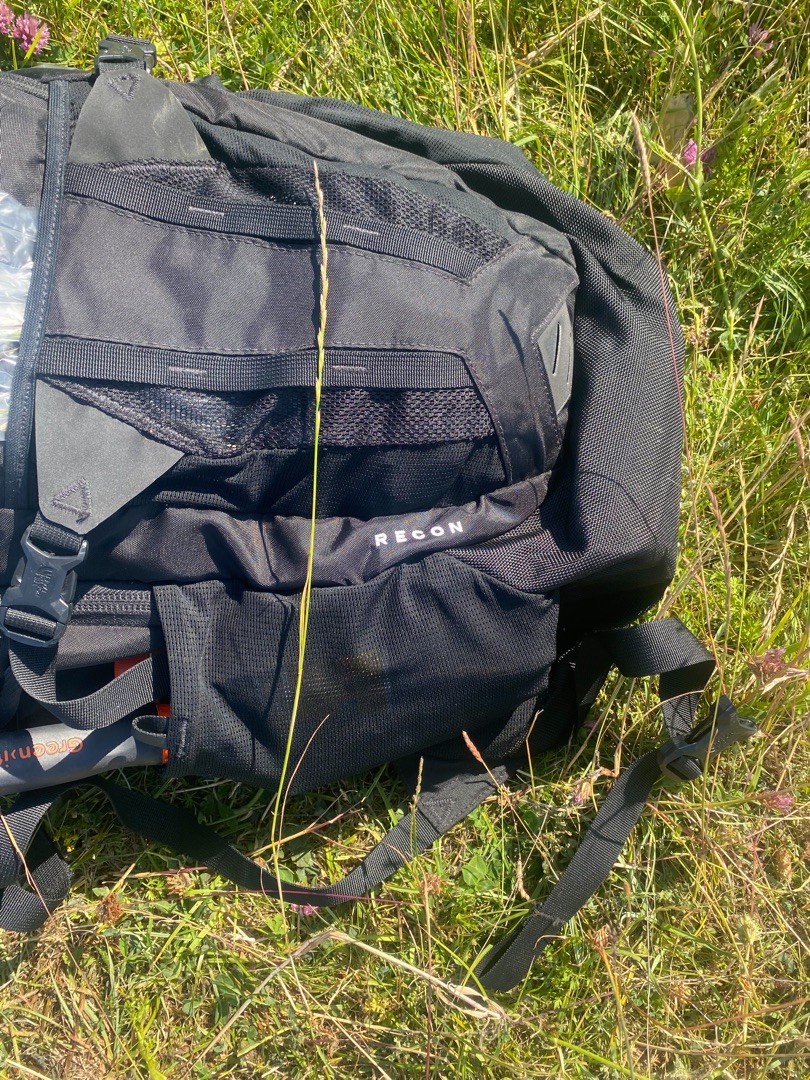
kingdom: Plantae
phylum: Tracheophyta
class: Liliopsida
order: Poales
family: Poaceae
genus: Lolium
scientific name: Lolium perenne
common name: Almindelig rajgræs
